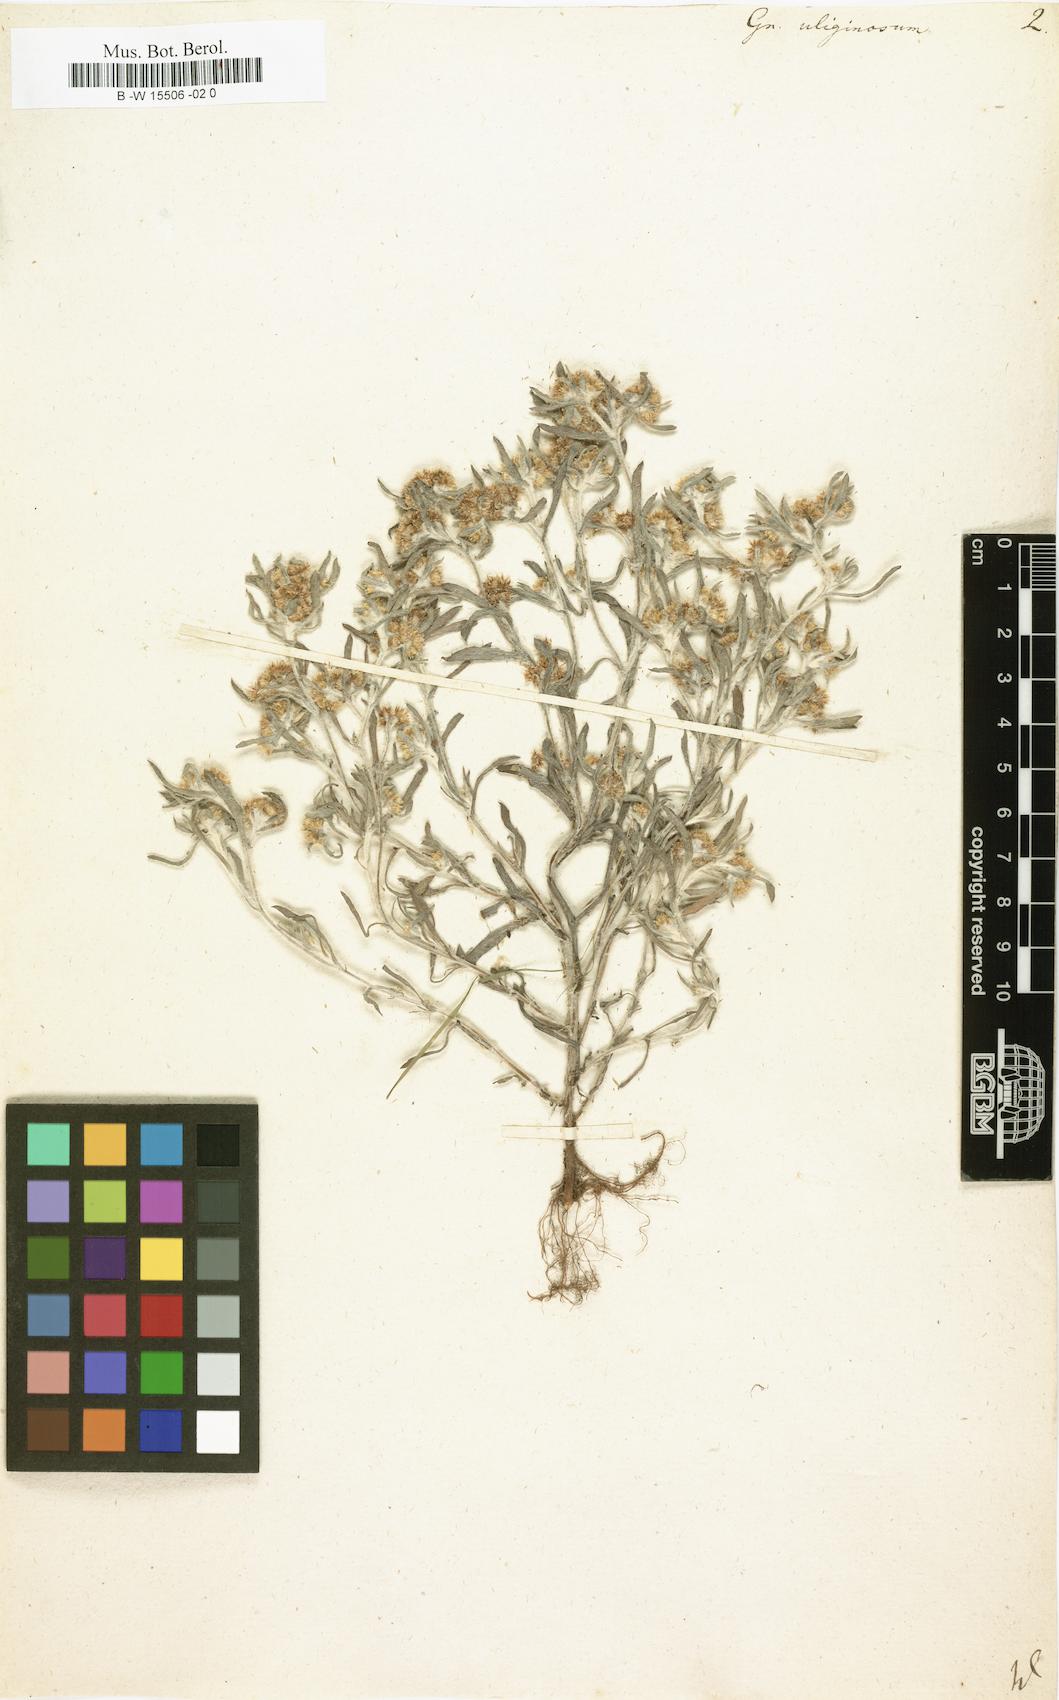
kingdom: Plantae
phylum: Tracheophyta
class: Magnoliopsida
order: Asterales
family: Asteraceae
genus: Gnaphalium
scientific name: Gnaphalium uliginosum
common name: Marsh cudweed
